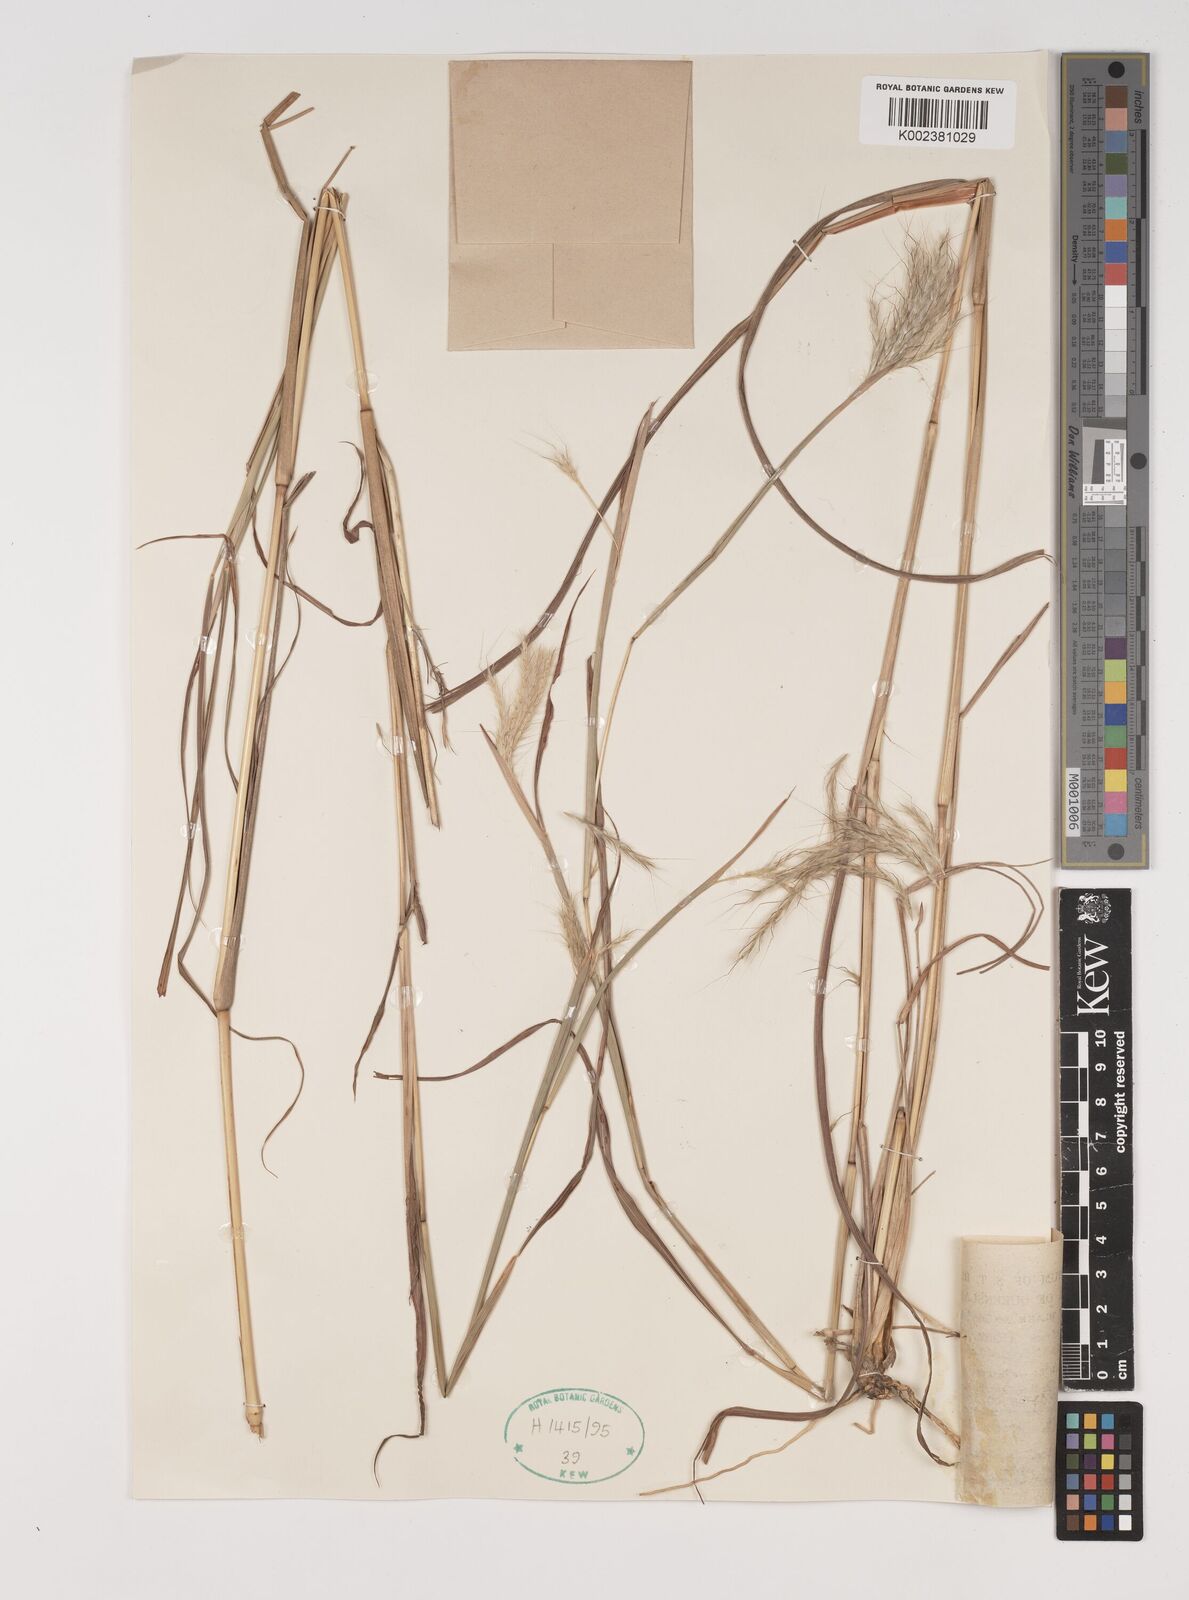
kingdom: Plantae
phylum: Tracheophyta
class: Liliopsida
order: Poales
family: Poaceae
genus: Bothriochloa
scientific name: Bothriochloa decipiens
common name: Pitted-bluegrass
